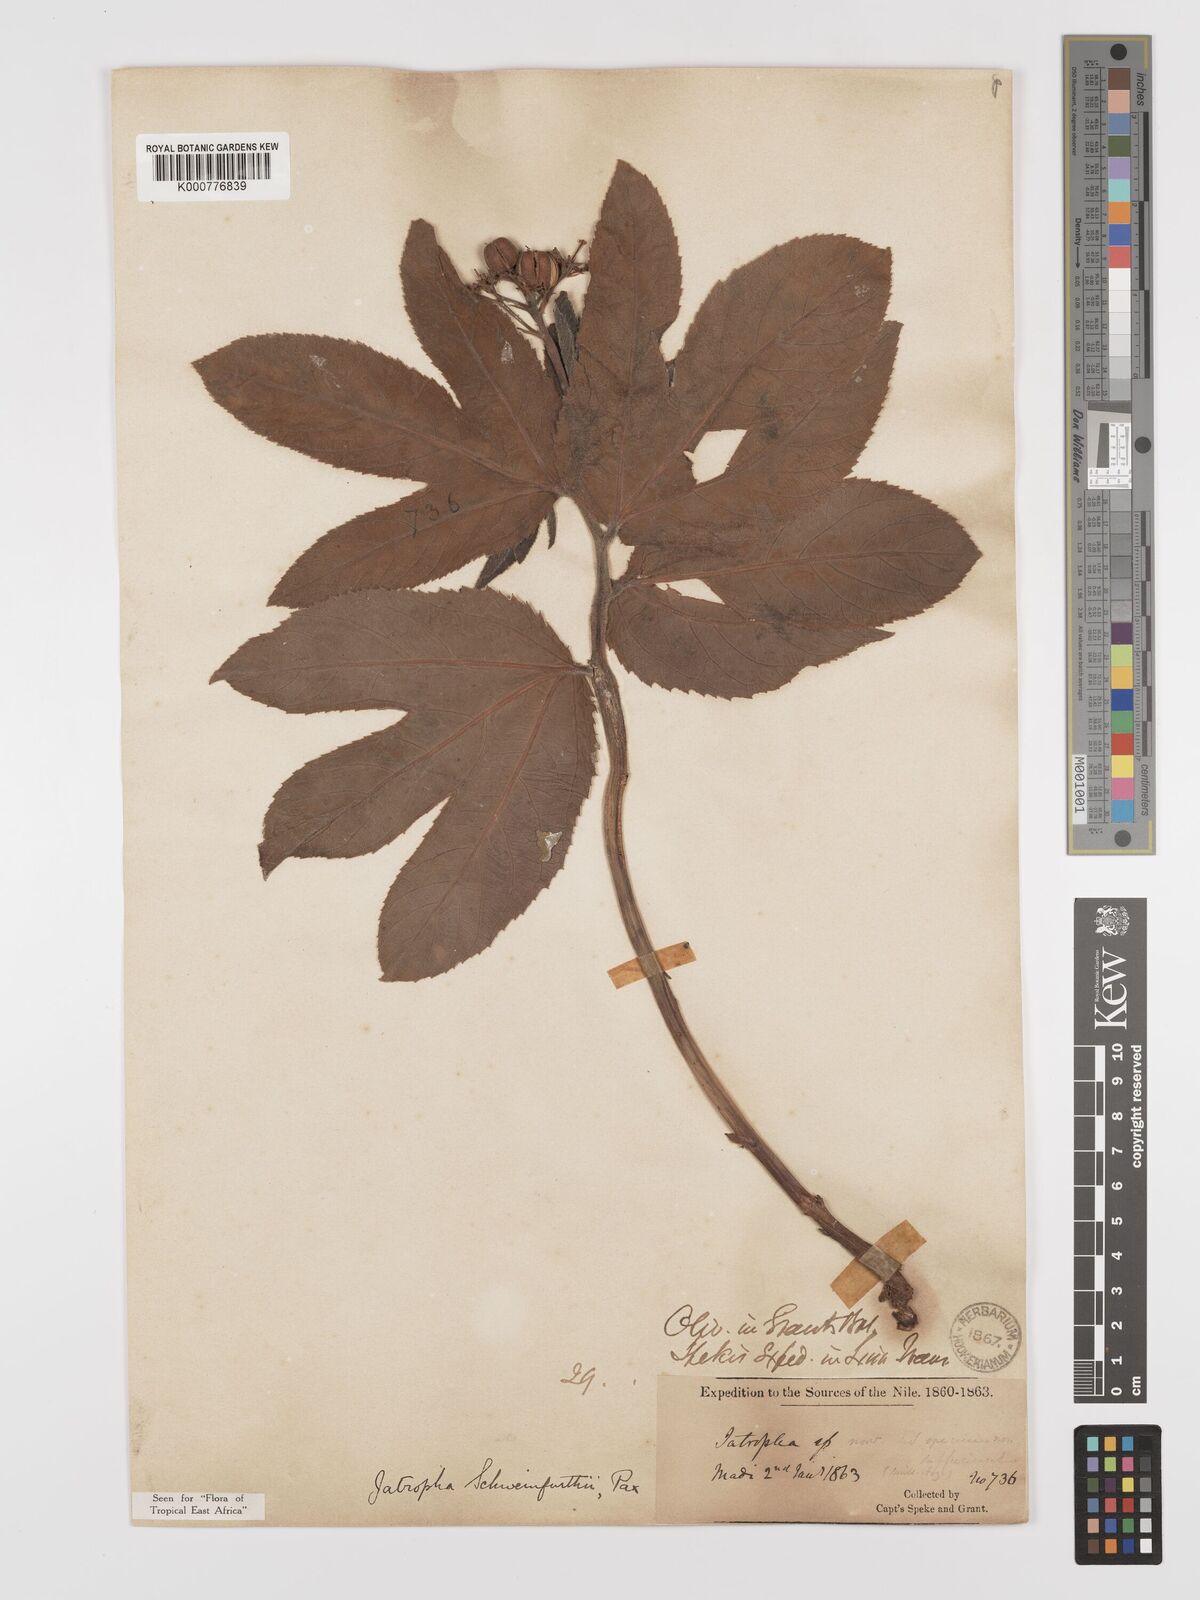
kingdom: Plantae
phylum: Tracheophyta
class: Magnoliopsida
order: Malpighiales
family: Euphorbiaceae
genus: Jatropha
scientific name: Jatropha schweinfurthii
